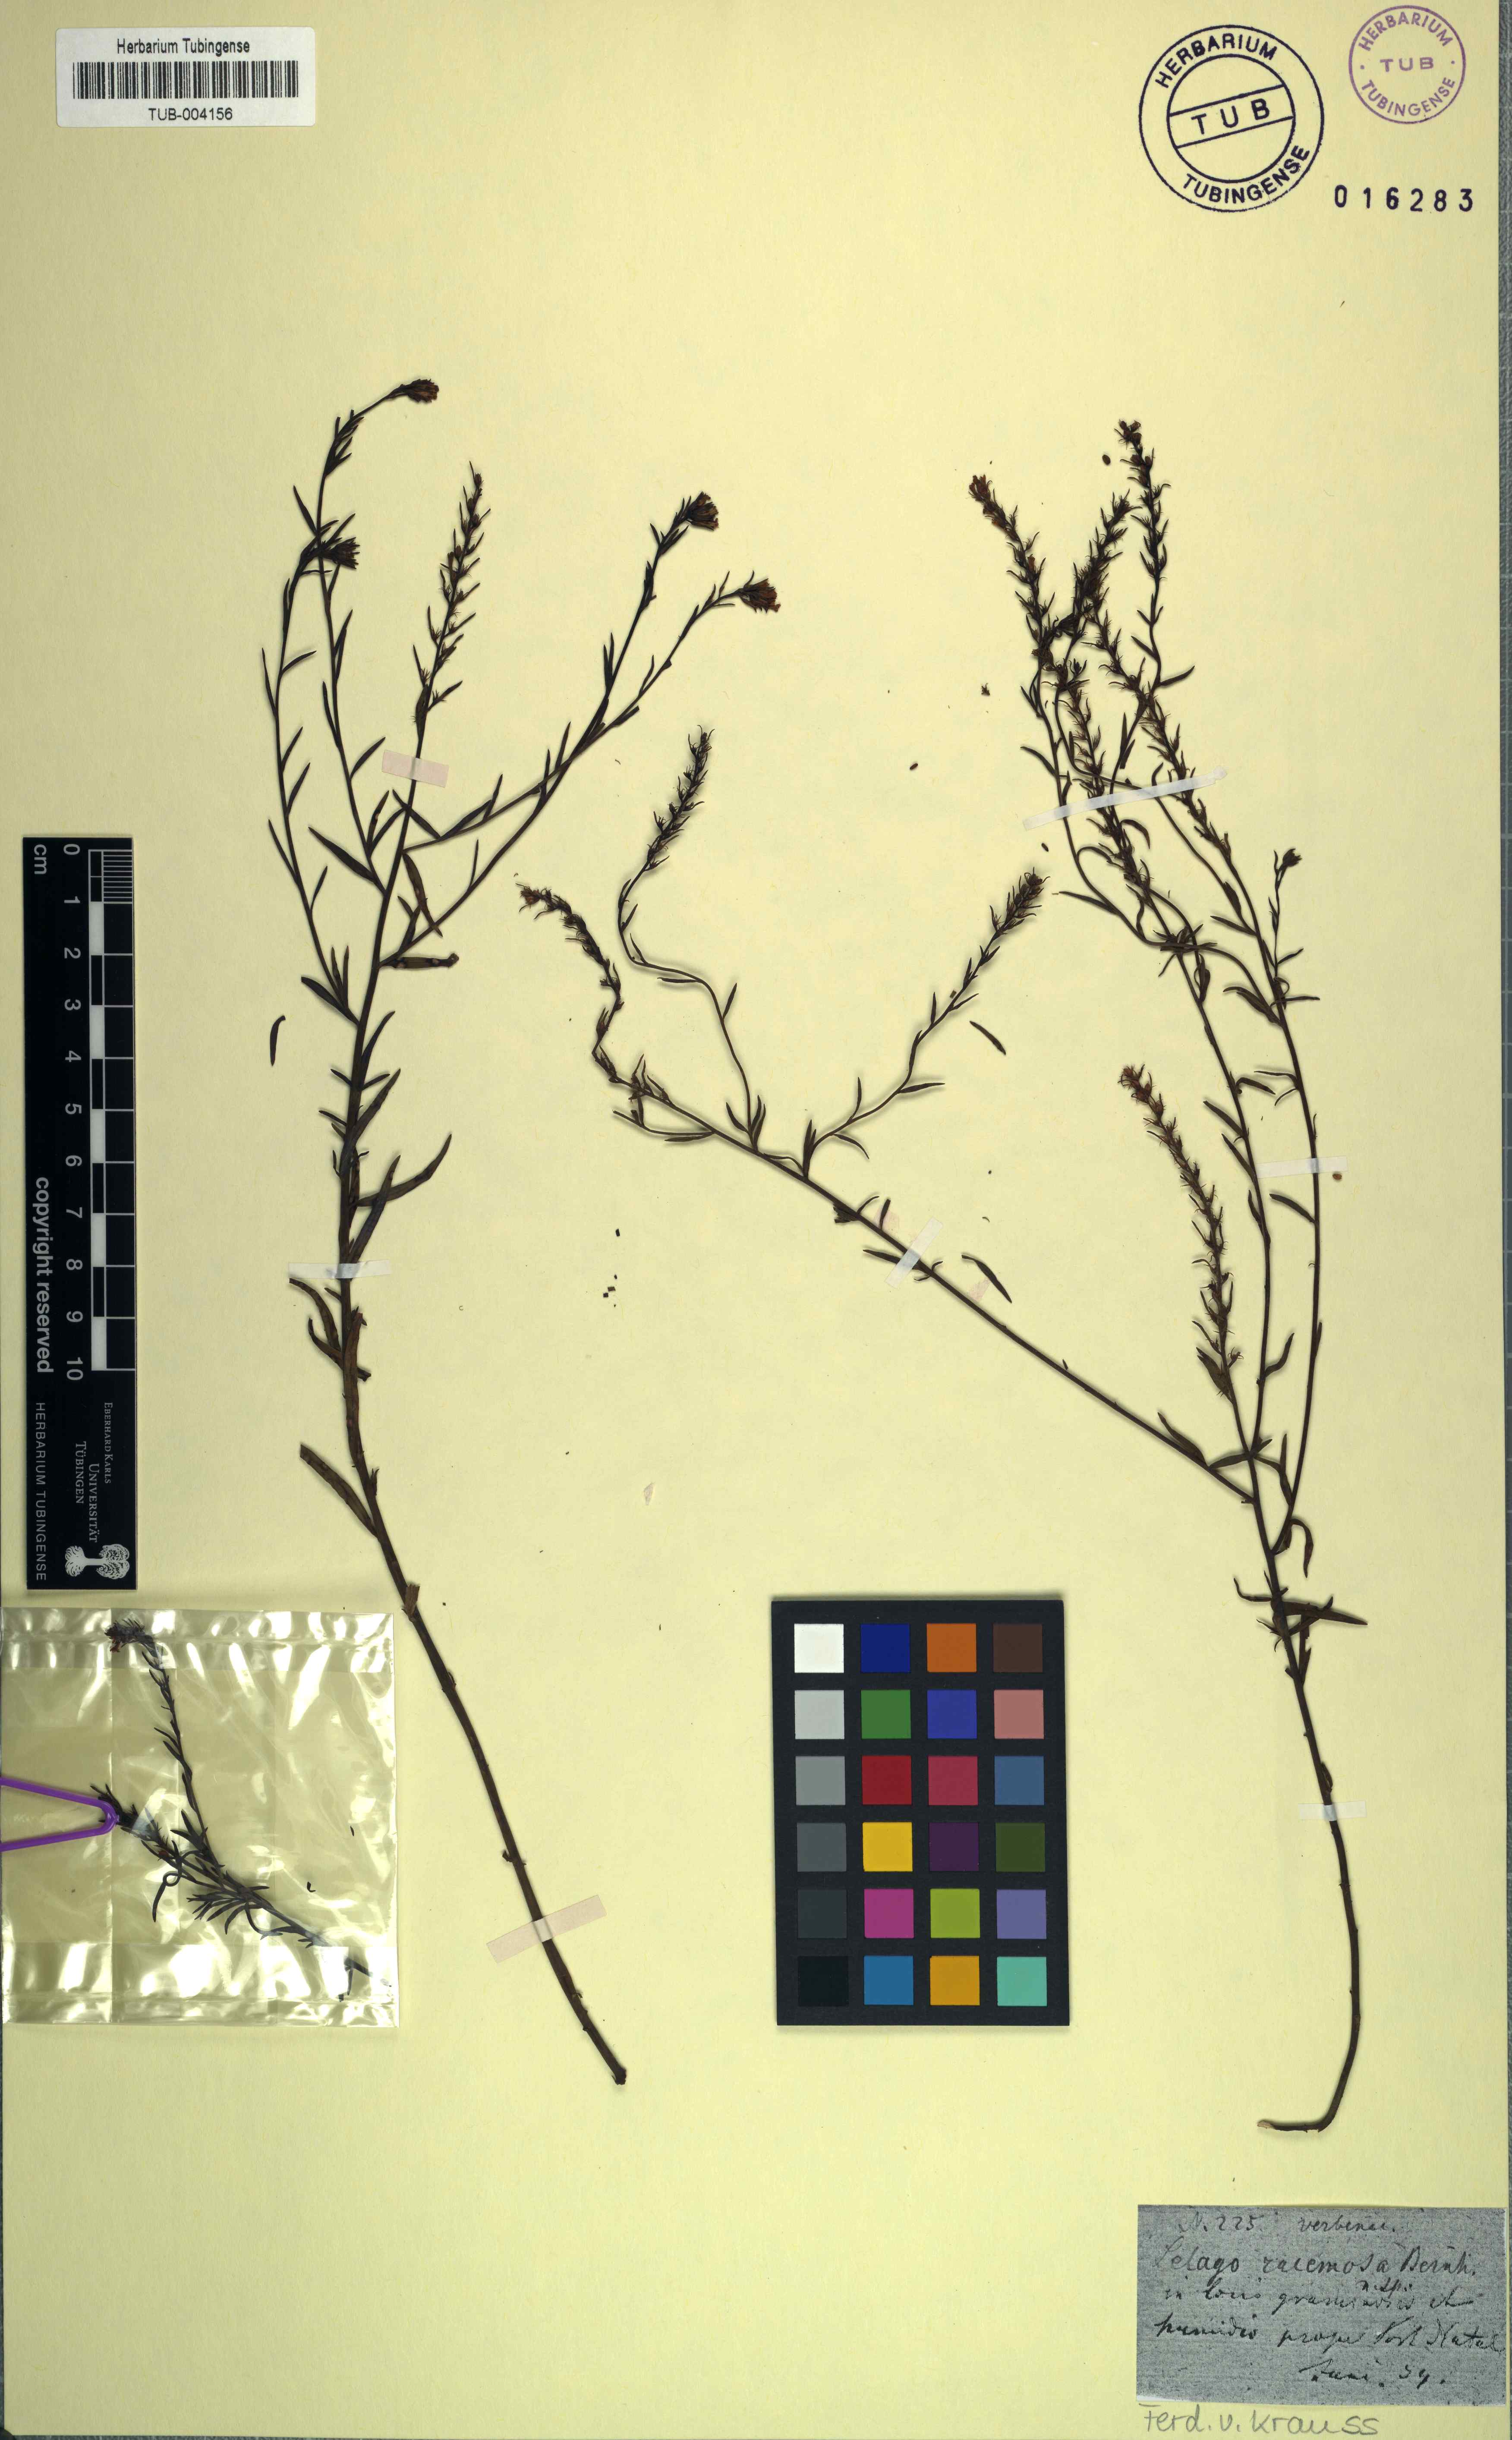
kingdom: Plantae
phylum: Tracheophyta
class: Magnoliopsida
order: Lamiales
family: Scrophulariaceae
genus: Selago
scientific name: Selago trinervia
